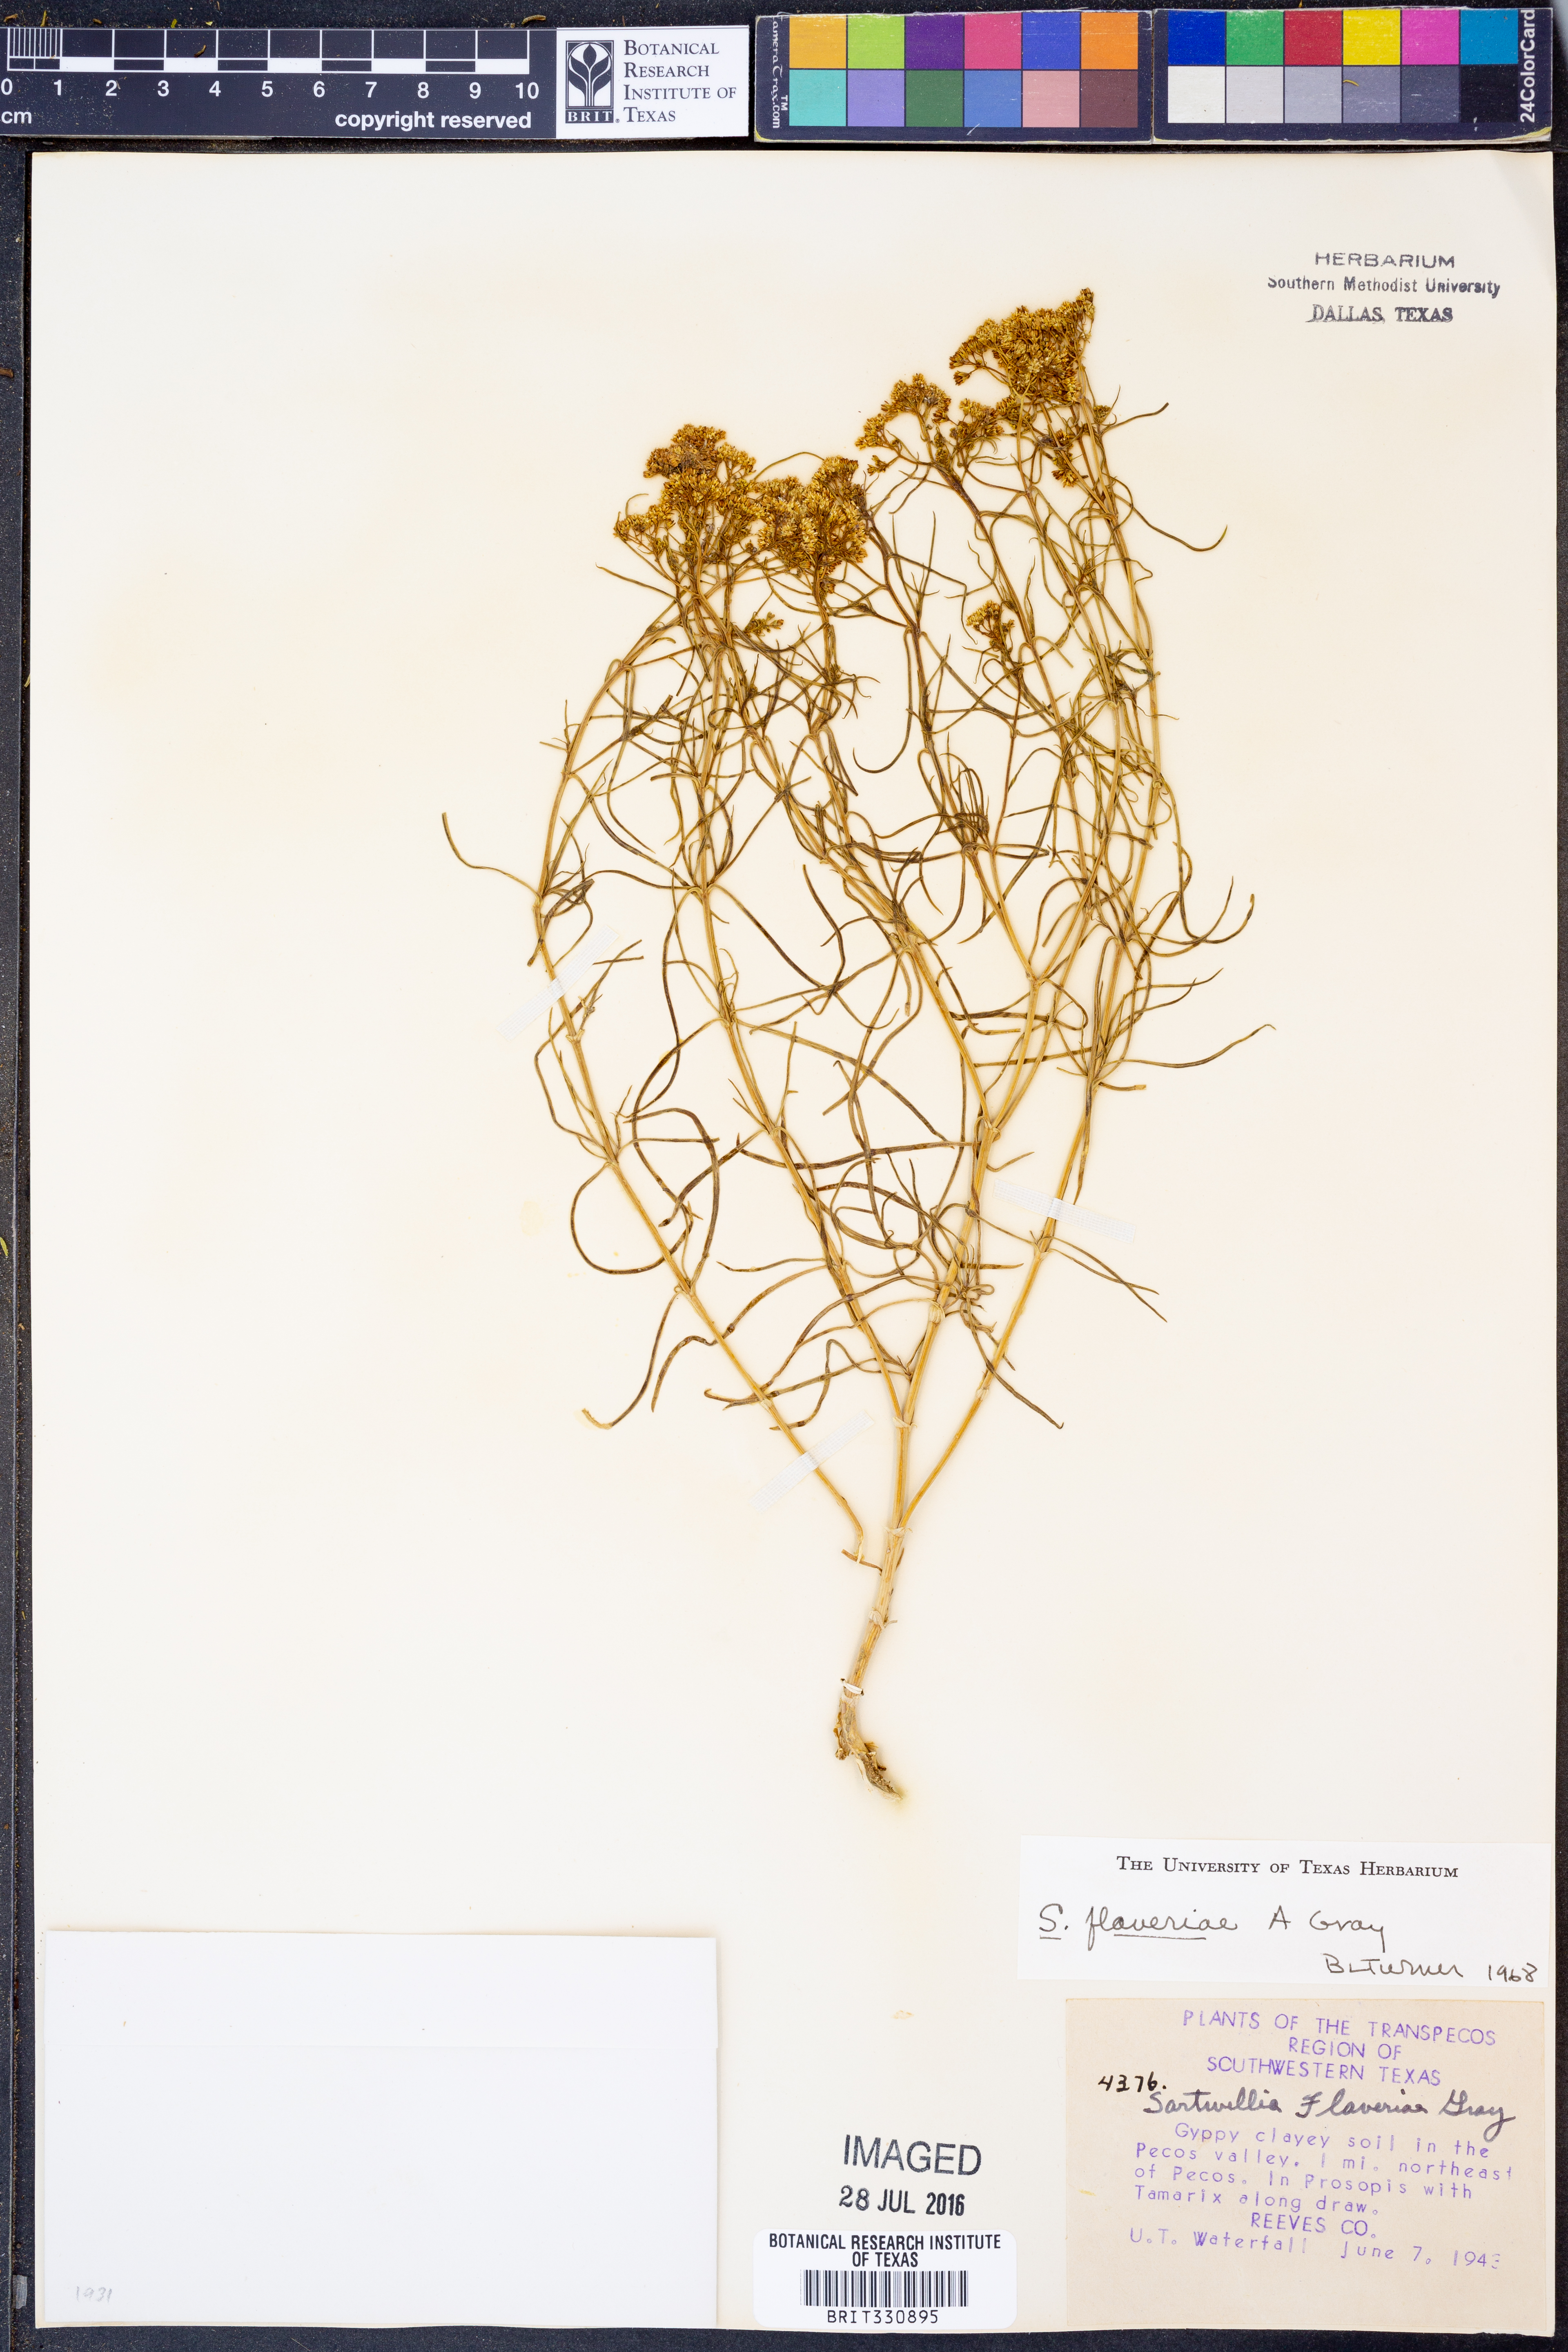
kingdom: Plantae
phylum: Tracheophyta
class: Magnoliopsida
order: Asterales
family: Asteraceae
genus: Sartwellia
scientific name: Sartwellia flaveriae
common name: Sartwellia
